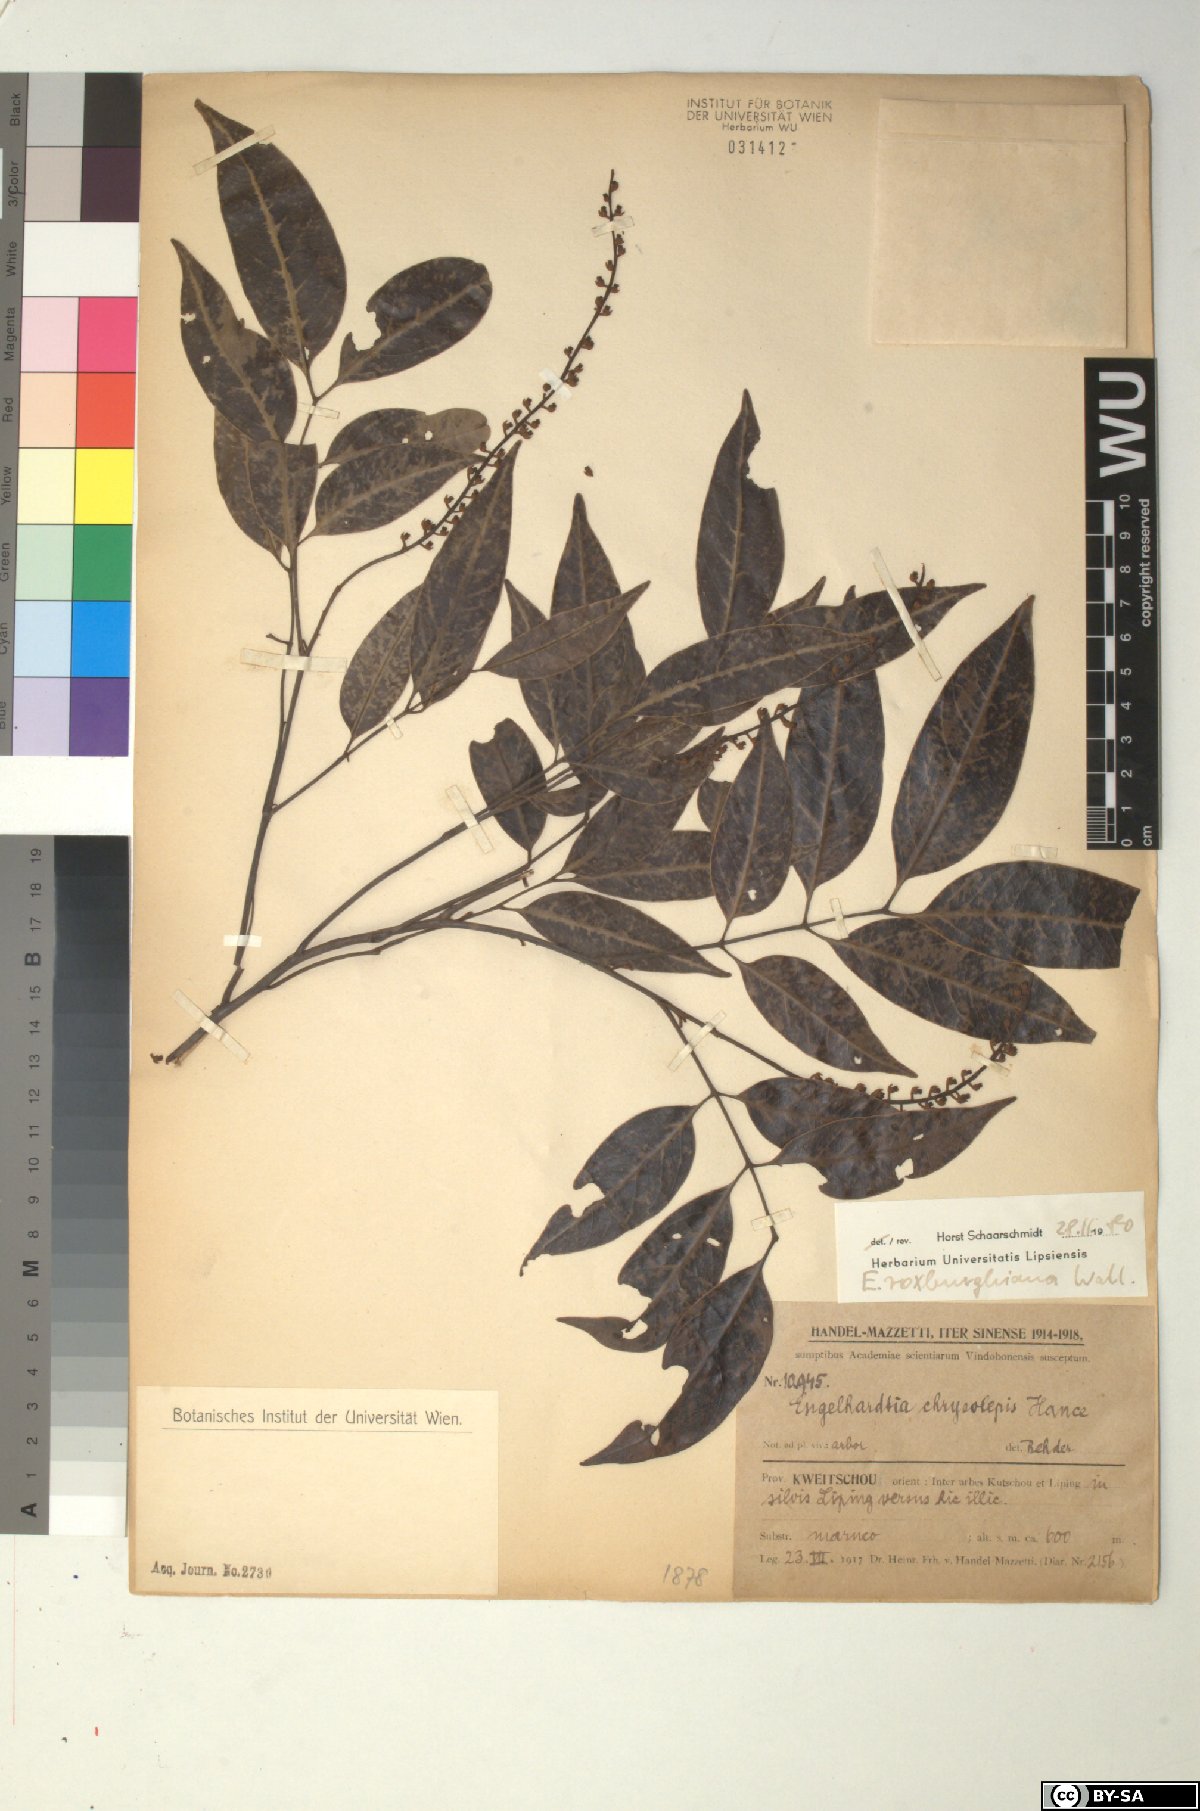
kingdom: Plantae
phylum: Tracheophyta
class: Magnoliopsida
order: Fagales
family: Juglandaceae
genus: Engelhardia
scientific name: Engelhardia roxburghiana
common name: Golden malay beam
